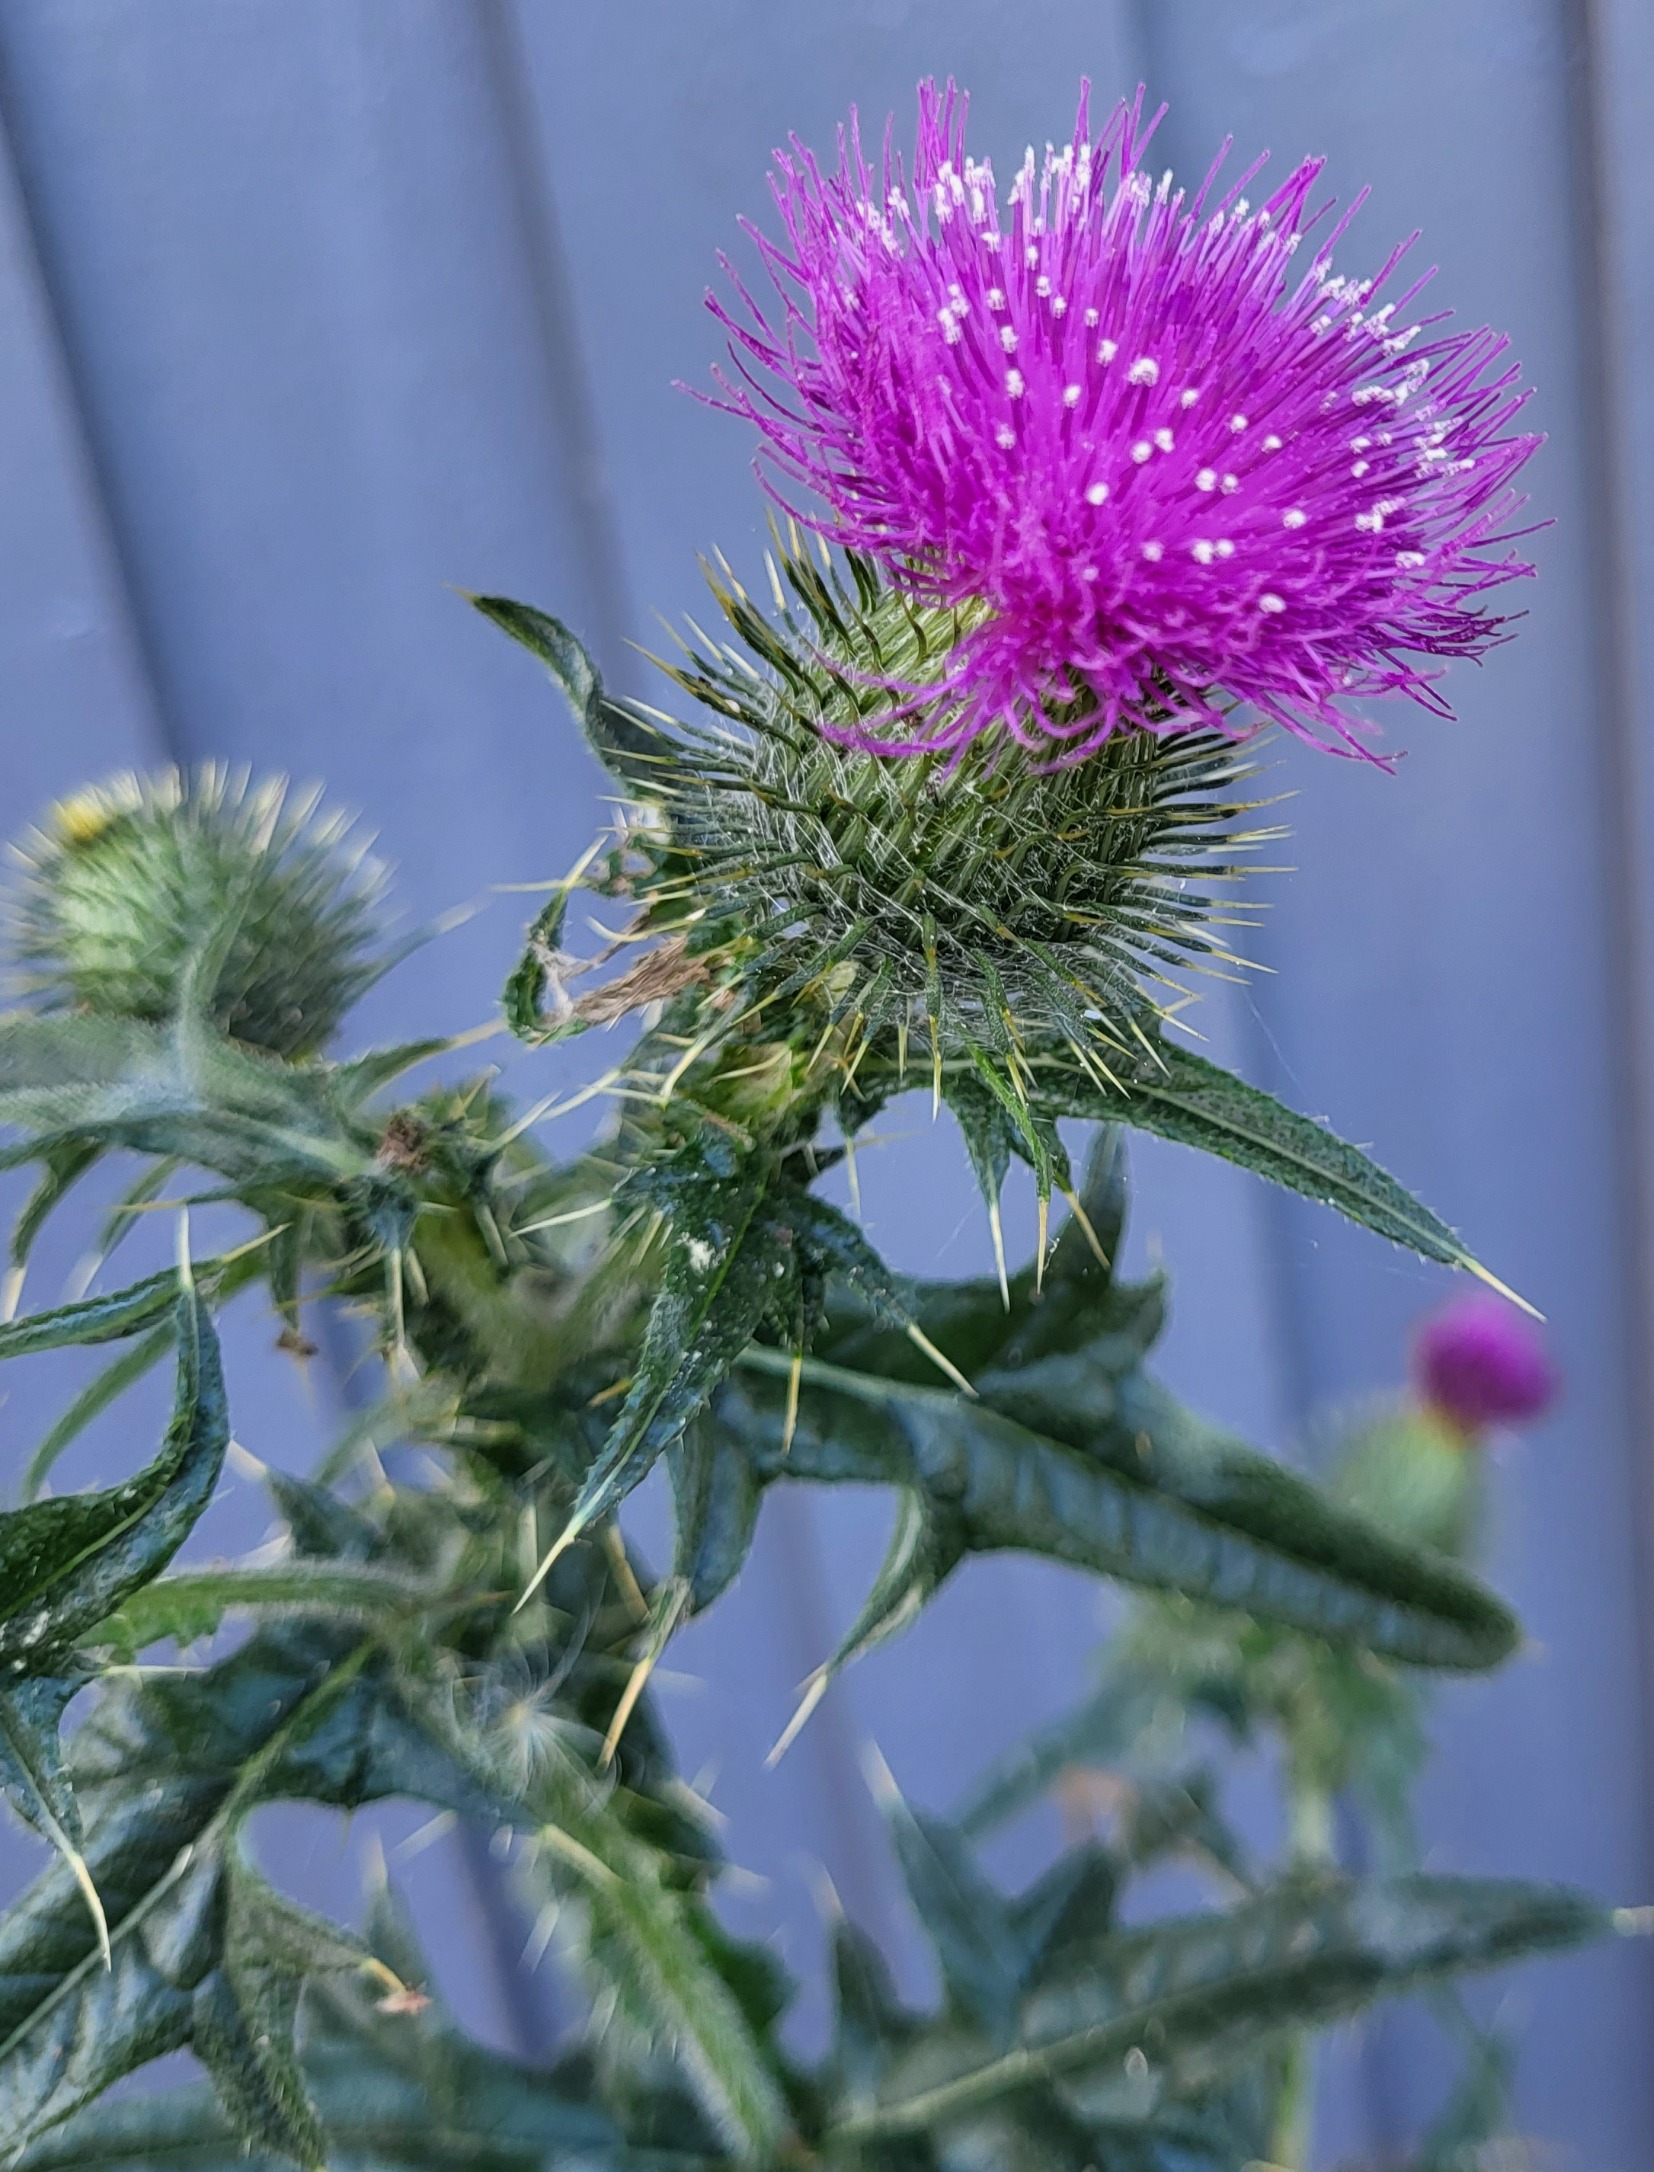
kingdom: Plantae
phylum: Tracheophyta
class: Magnoliopsida
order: Asterales
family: Asteraceae
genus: Cirsium
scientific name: Cirsium vulgare
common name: Horse-tidsel
